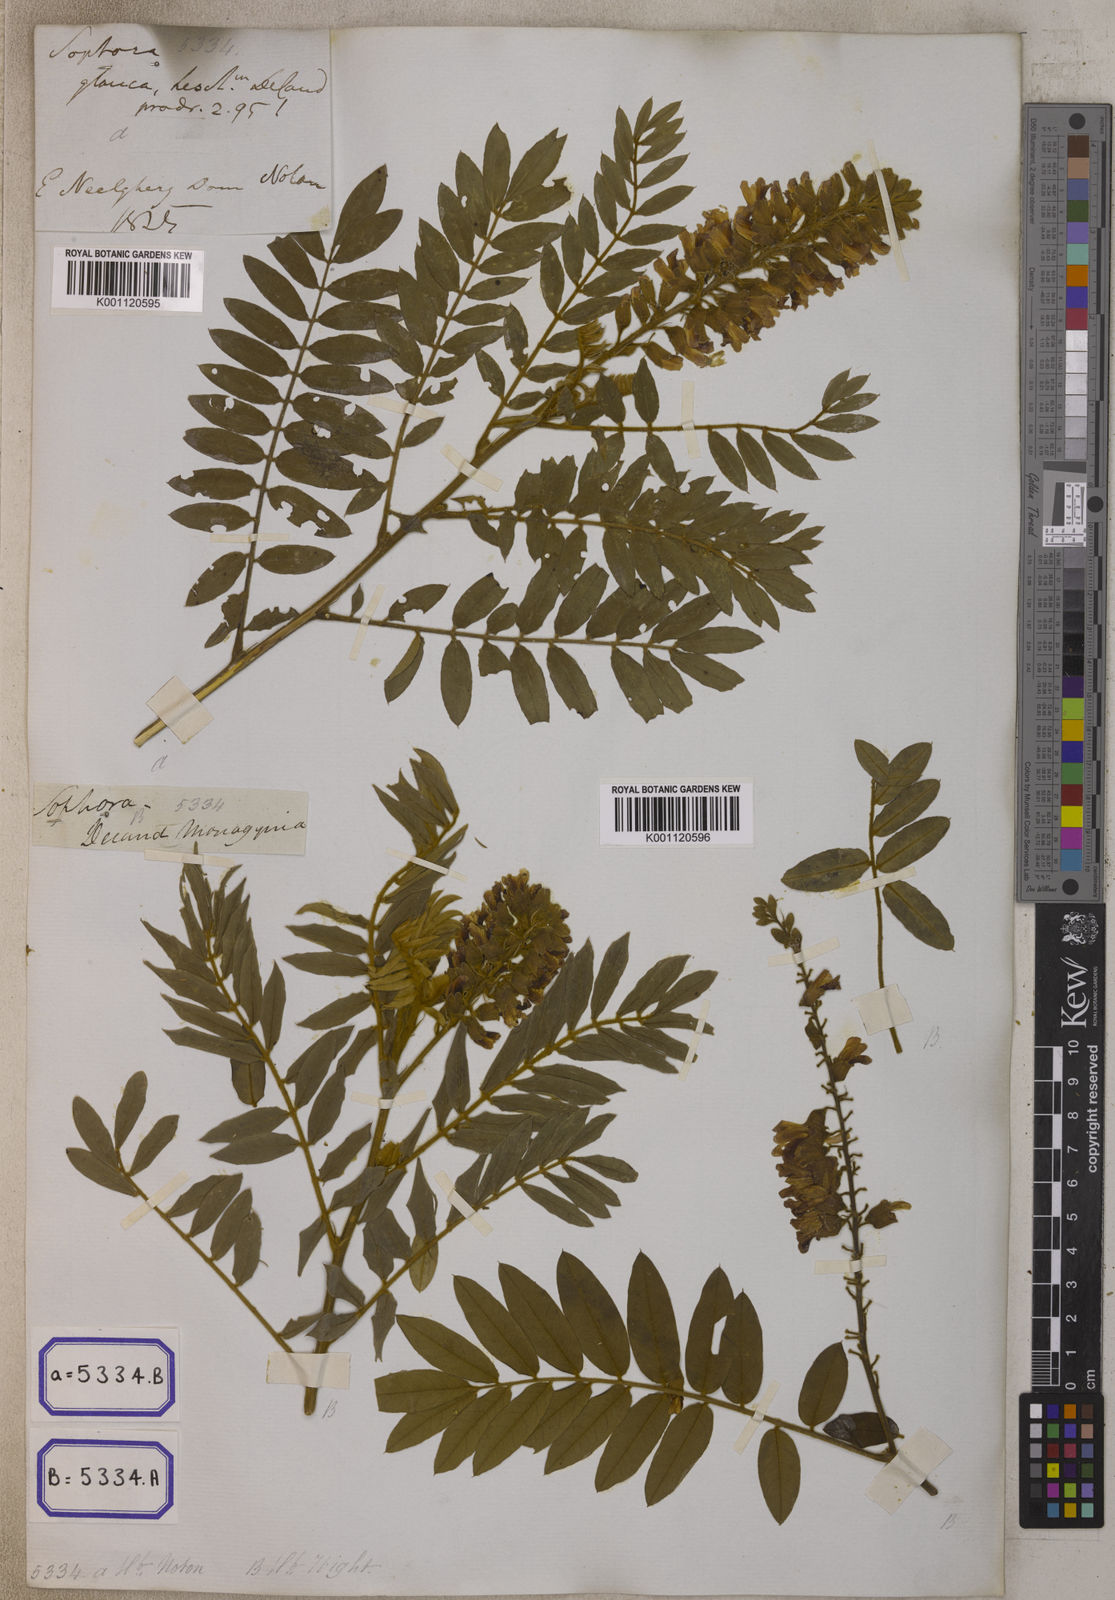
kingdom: Plantae
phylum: Tracheophyta
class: Magnoliopsida
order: Fabales
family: Fabaceae
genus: Baptisia
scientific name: Baptisia alba
